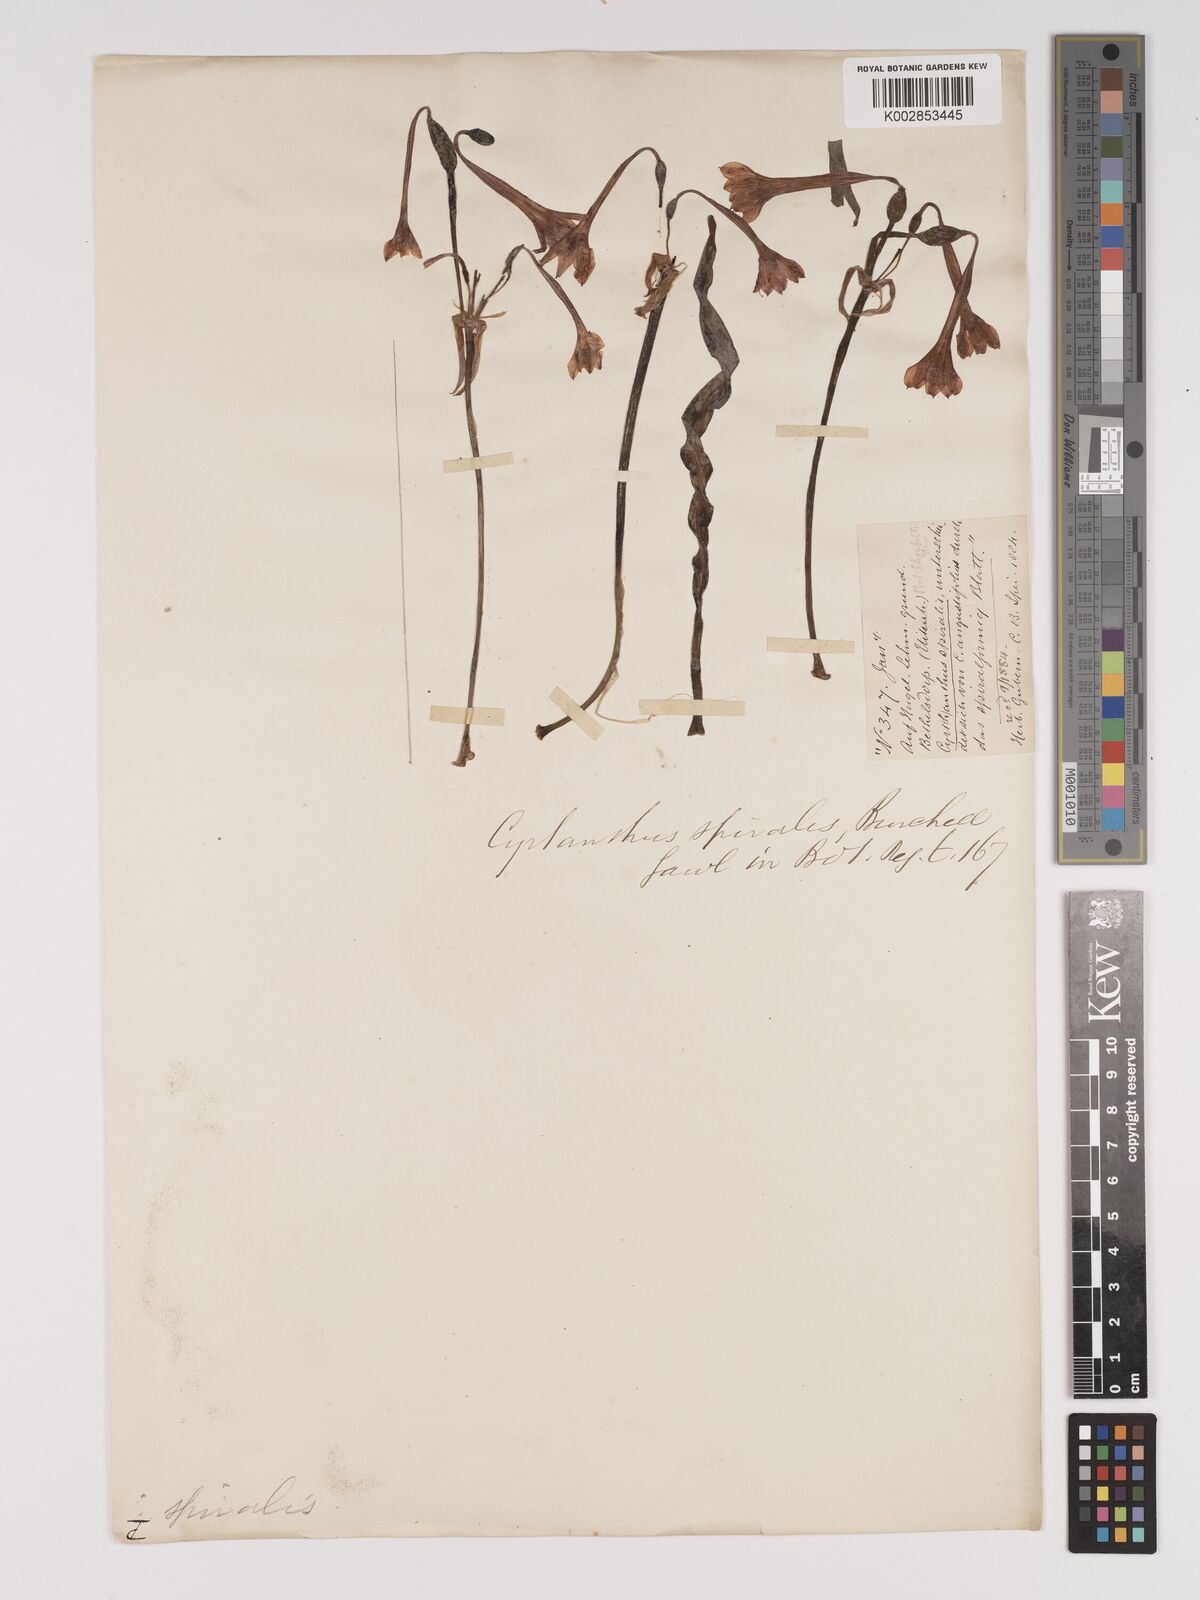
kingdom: Plantae
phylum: Tracheophyta
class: Liliopsida
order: Asparagales
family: Amaryllidaceae
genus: Cyrtanthus
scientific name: Cyrtanthus spiralis
